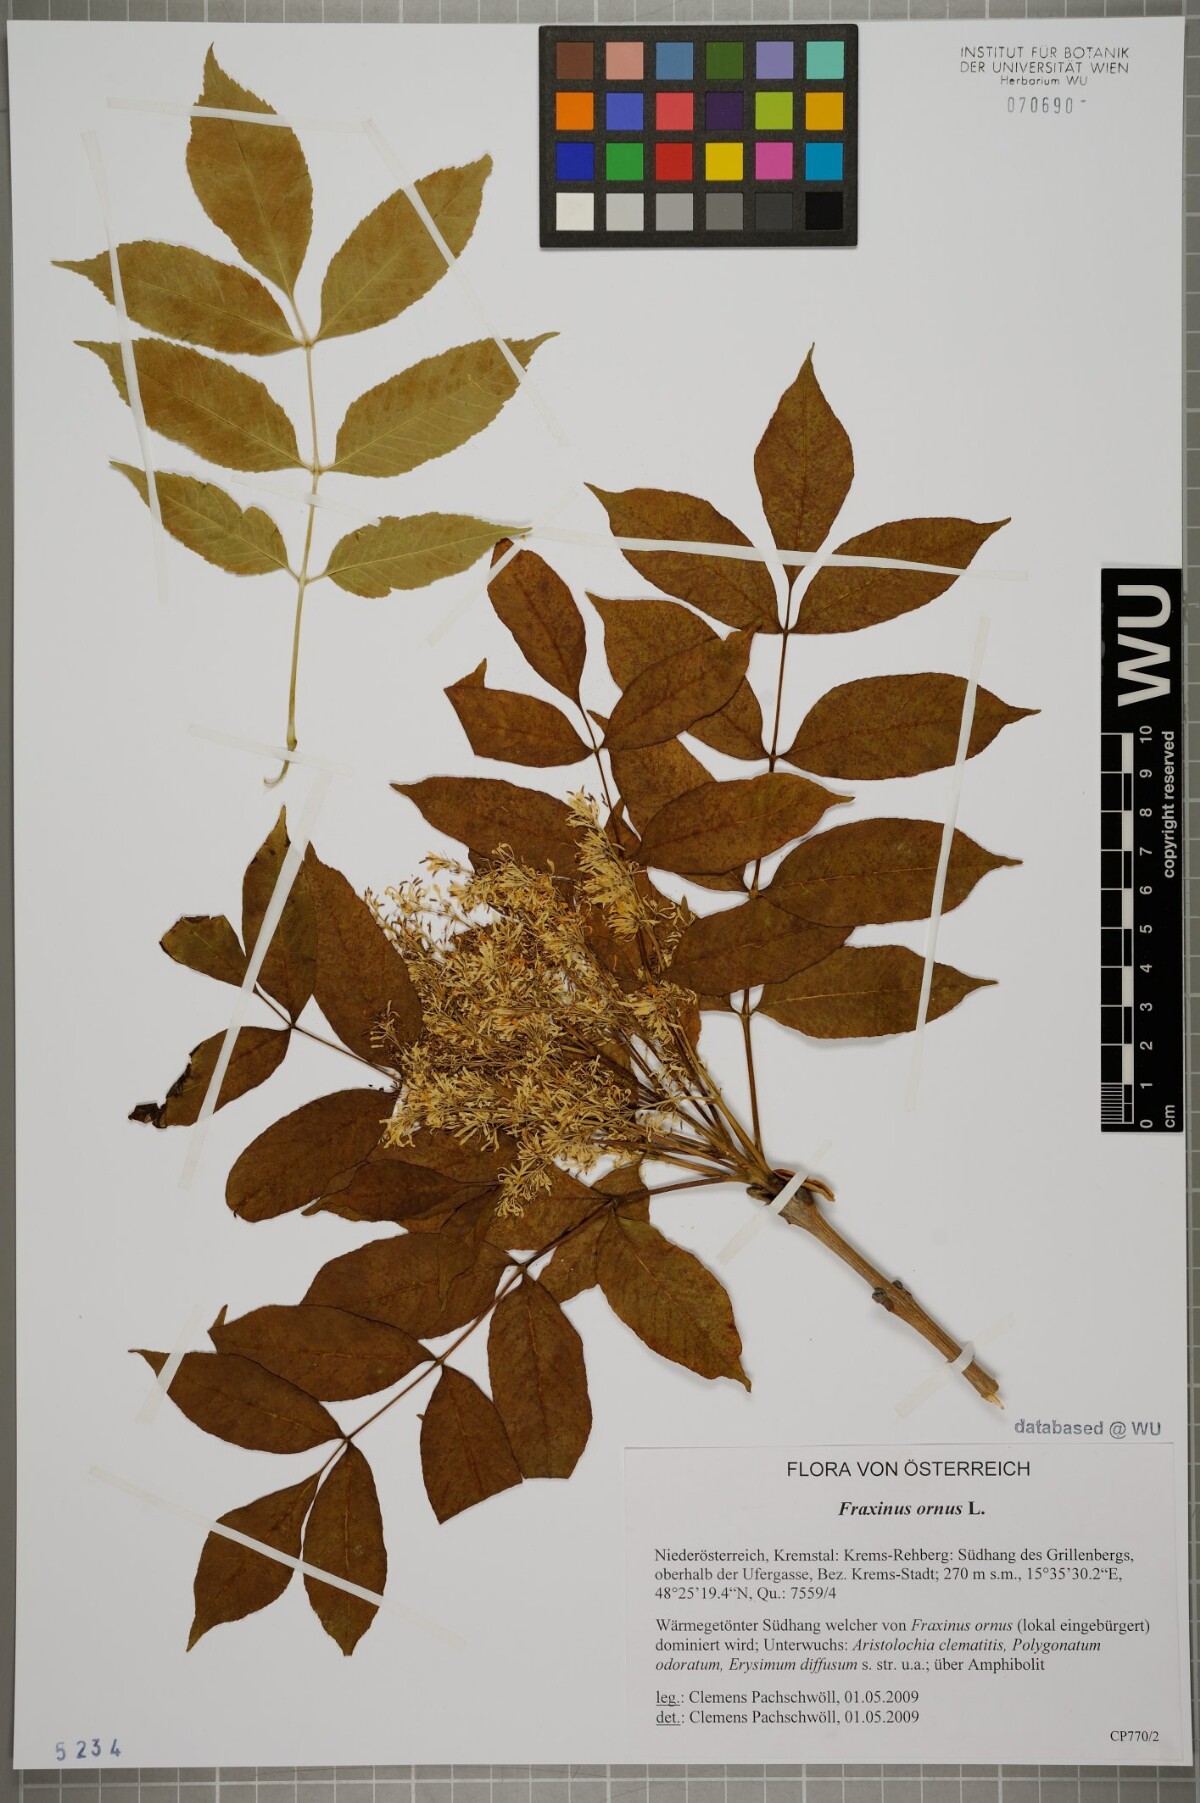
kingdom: Plantae
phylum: Tracheophyta
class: Magnoliopsida
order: Lamiales
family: Oleaceae
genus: Fraxinus
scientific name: Fraxinus ornus
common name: Manna ash
